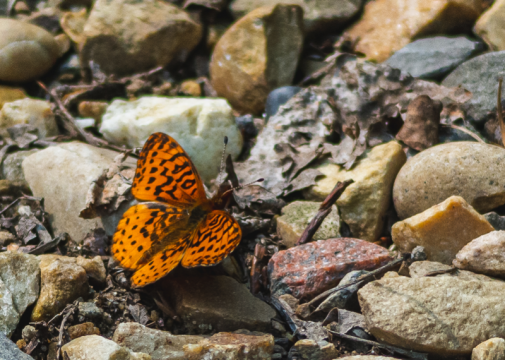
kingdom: Animalia
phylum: Arthropoda
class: Insecta
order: Lepidoptera
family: Nymphalidae
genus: Clossiana
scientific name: Clossiana toddi
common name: Meadow Fritillary
